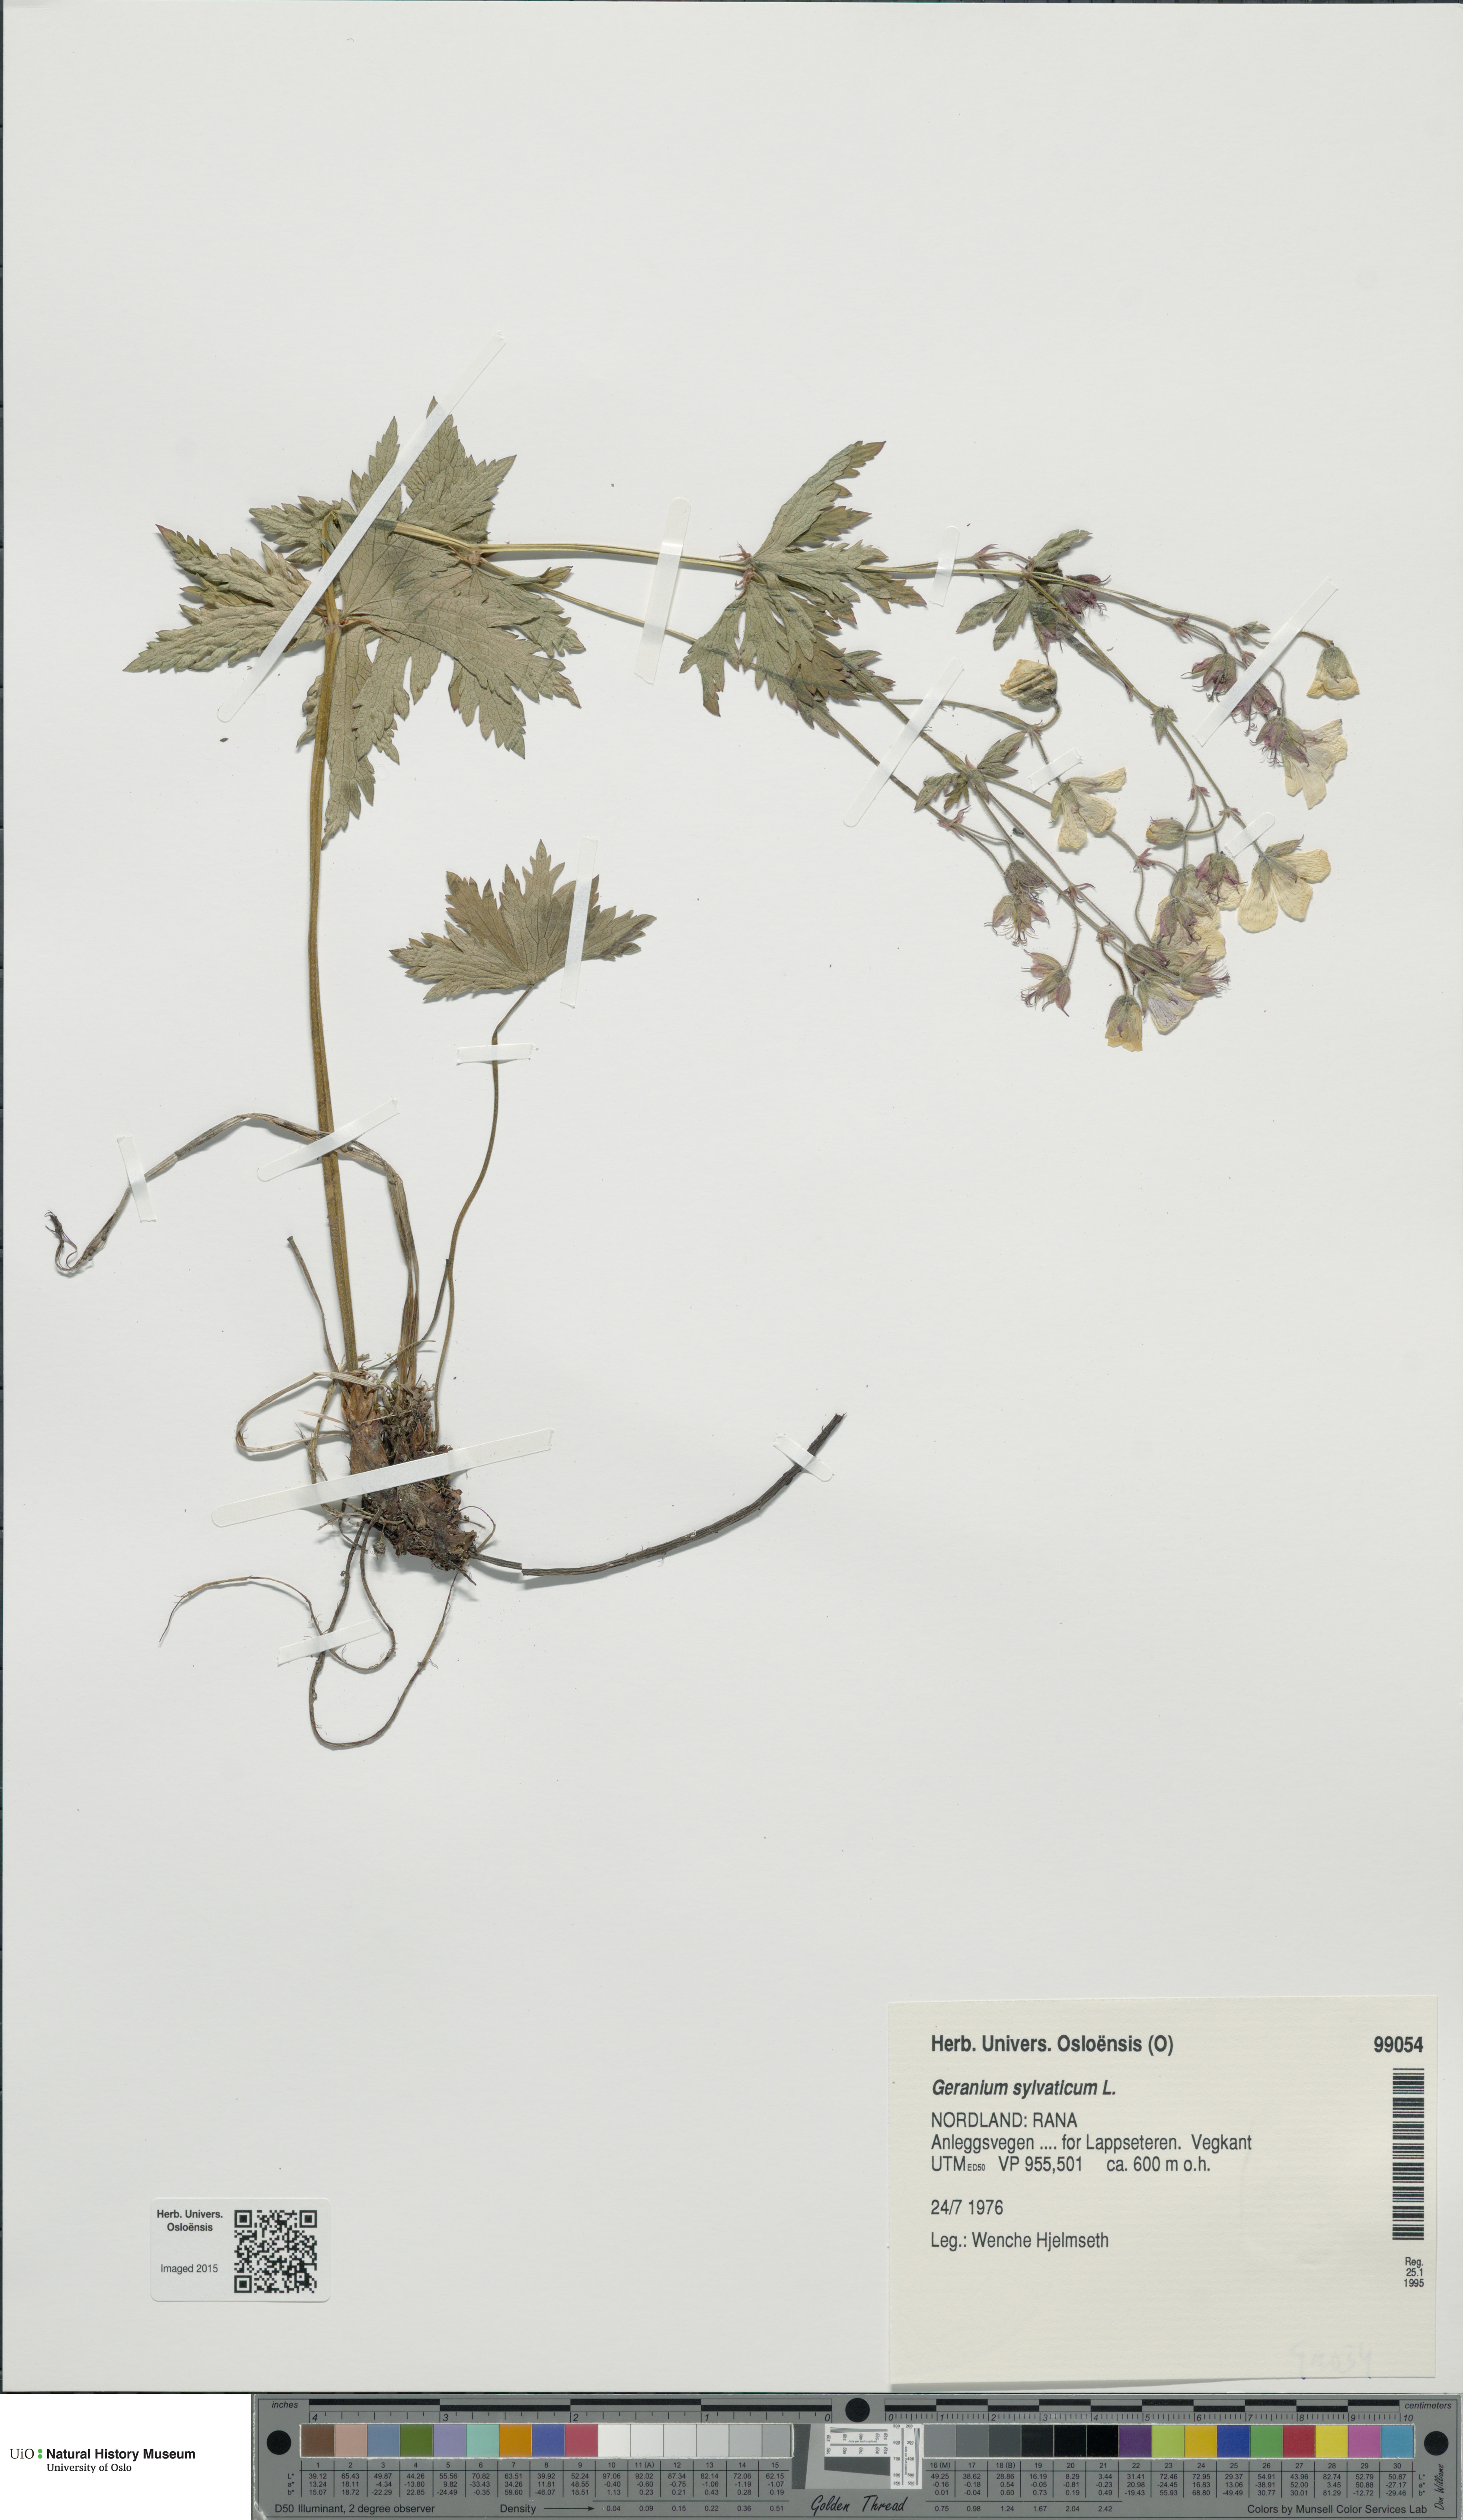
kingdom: Plantae
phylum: Tracheophyta
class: Magnoliopsida
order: Geraniales
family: Geraniaceae
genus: Geranium
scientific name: Geranium sylvaticum
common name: Wood crane's-bill
